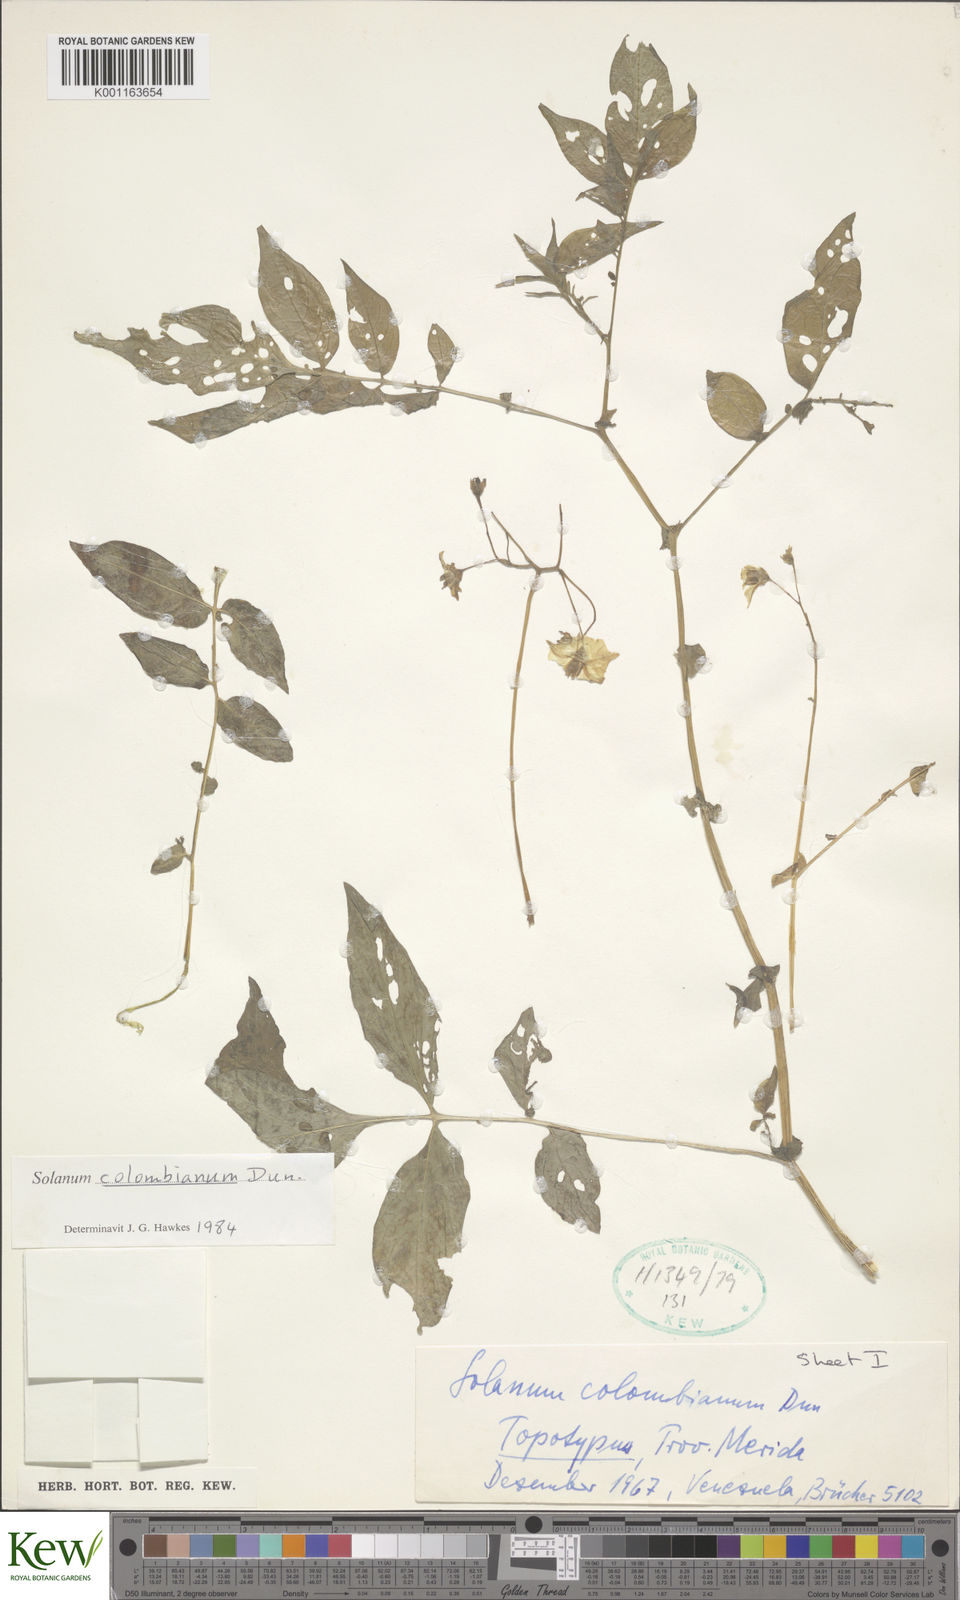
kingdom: Plantae
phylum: Tracheophyta
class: Magnoliopsida
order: Solanales
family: Solanaceae
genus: Solanum
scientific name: Solanum colombianum
